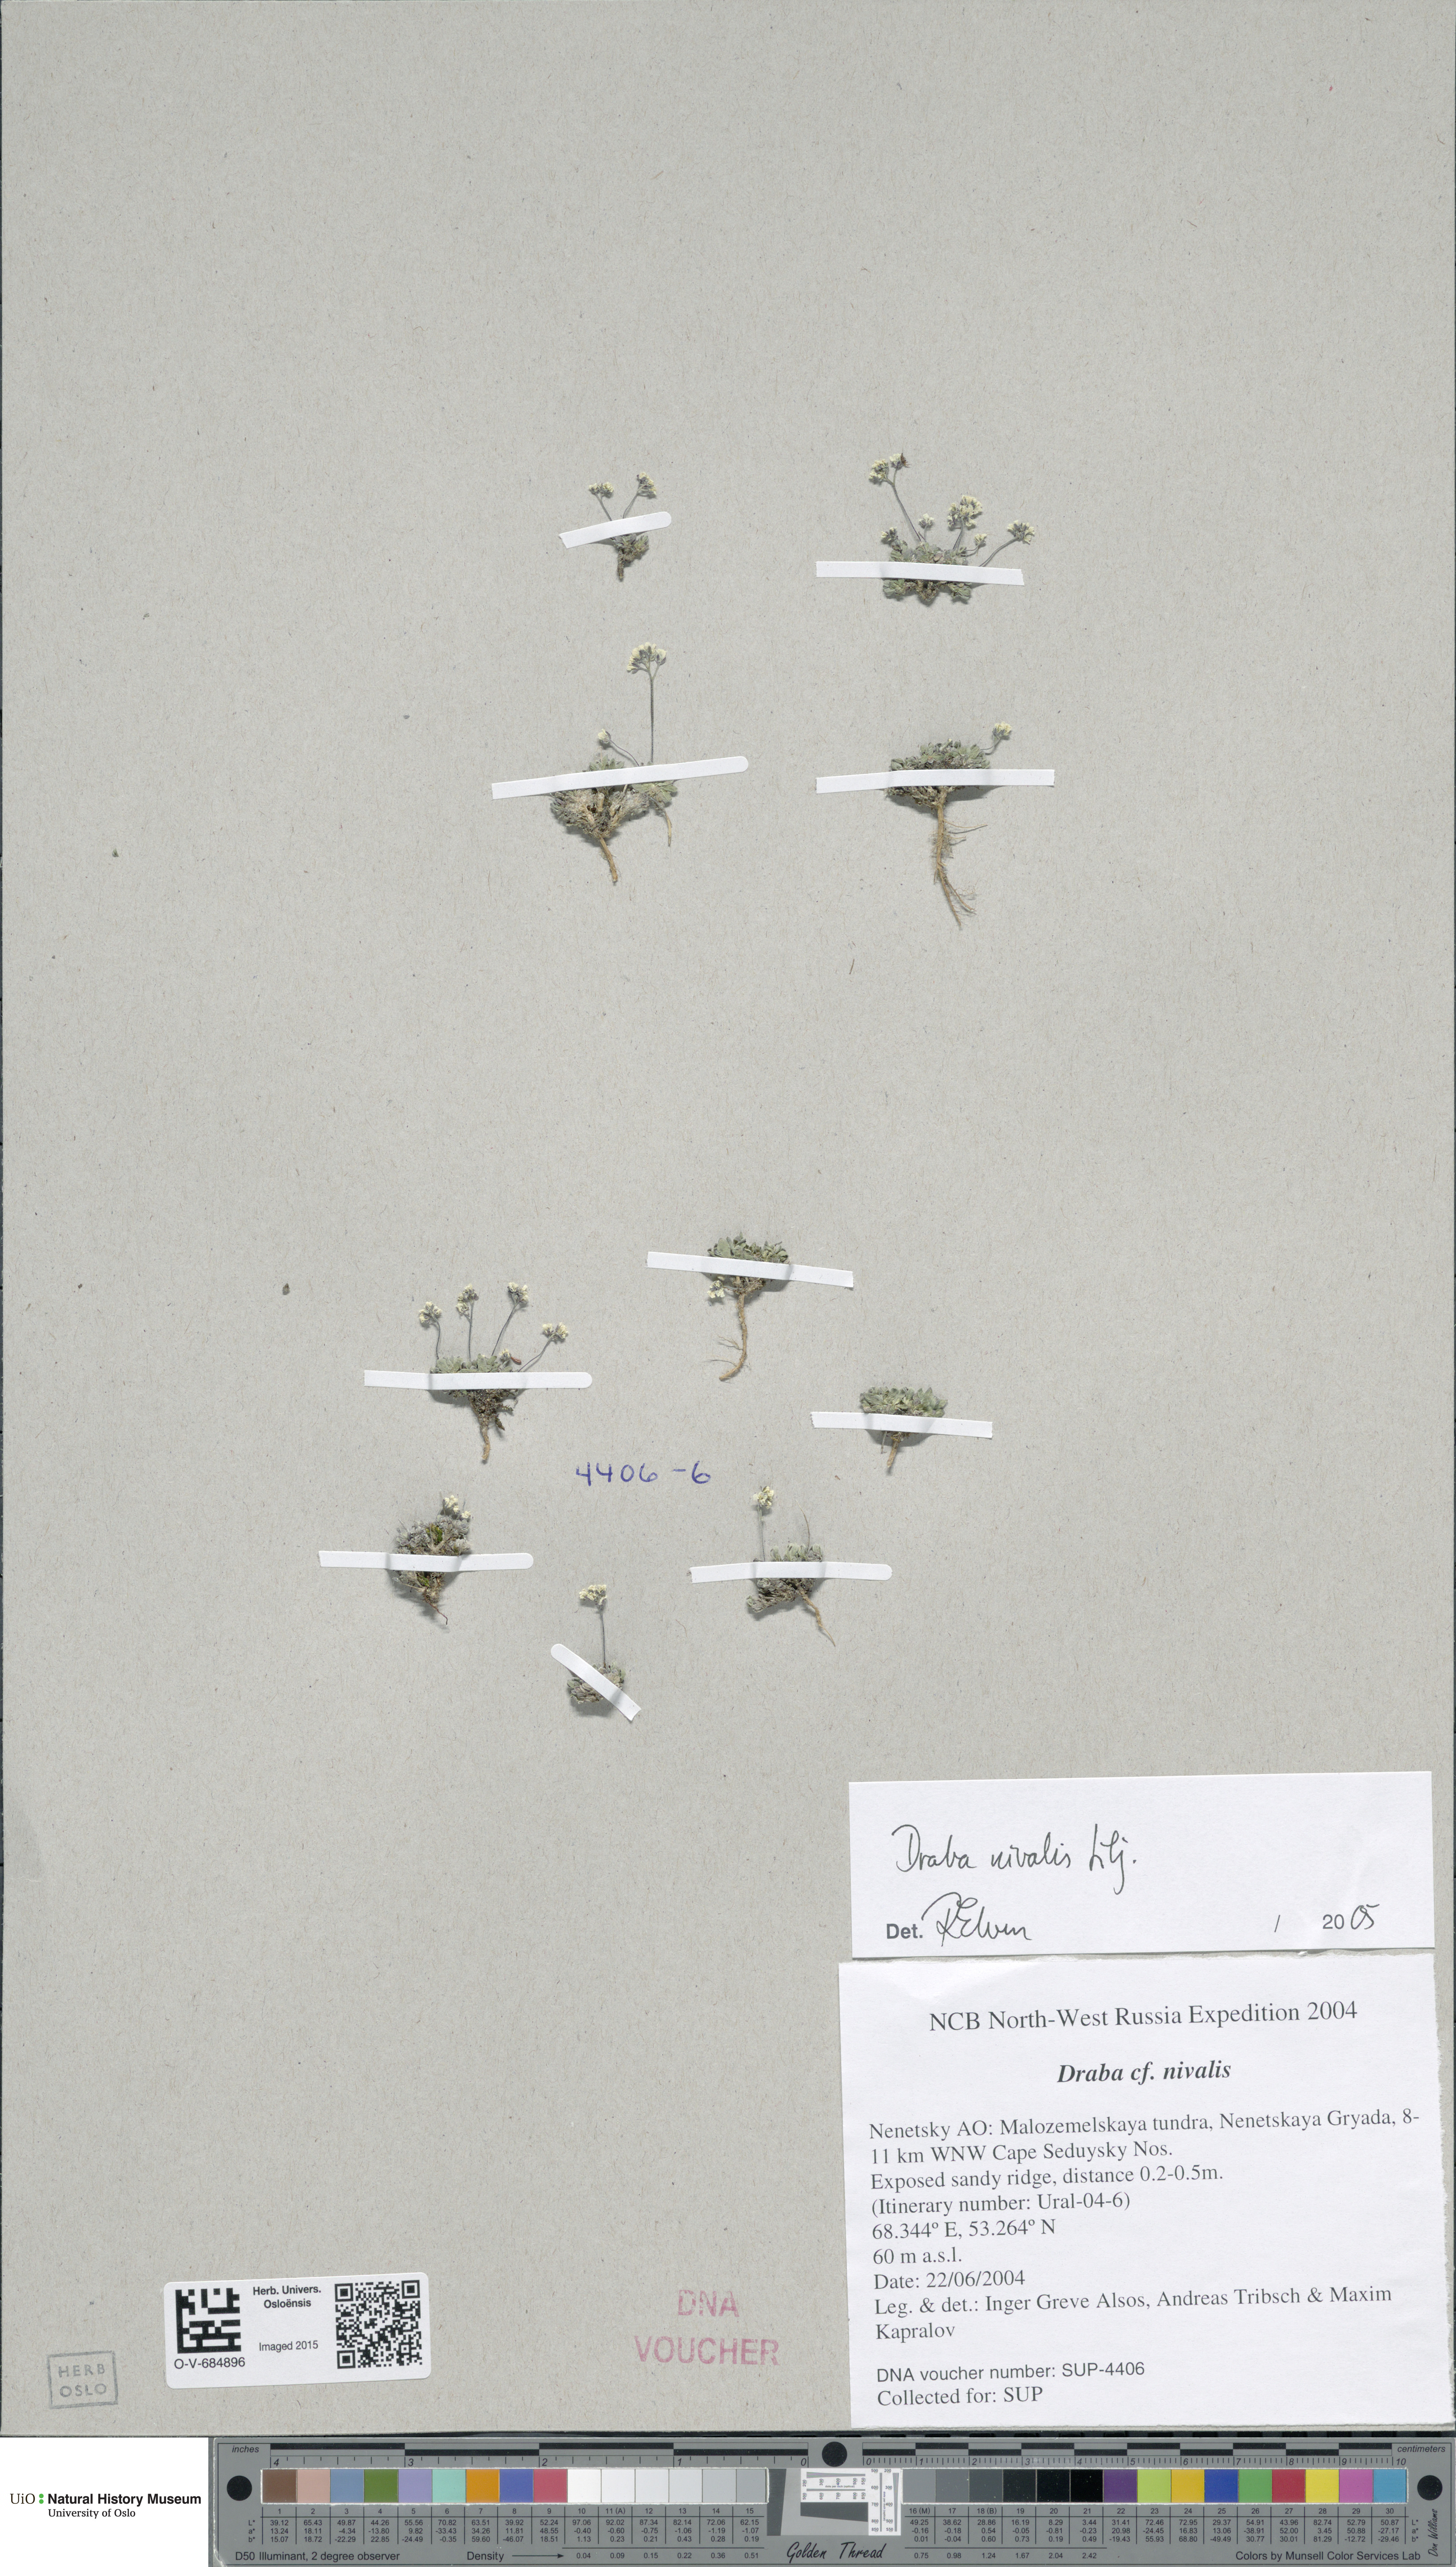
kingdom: Plantae
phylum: Tracheophyta
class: Magnoliopsida
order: Brassicales
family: Brassicaceae
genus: Draba
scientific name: Draba nivalis
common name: Snow draba
